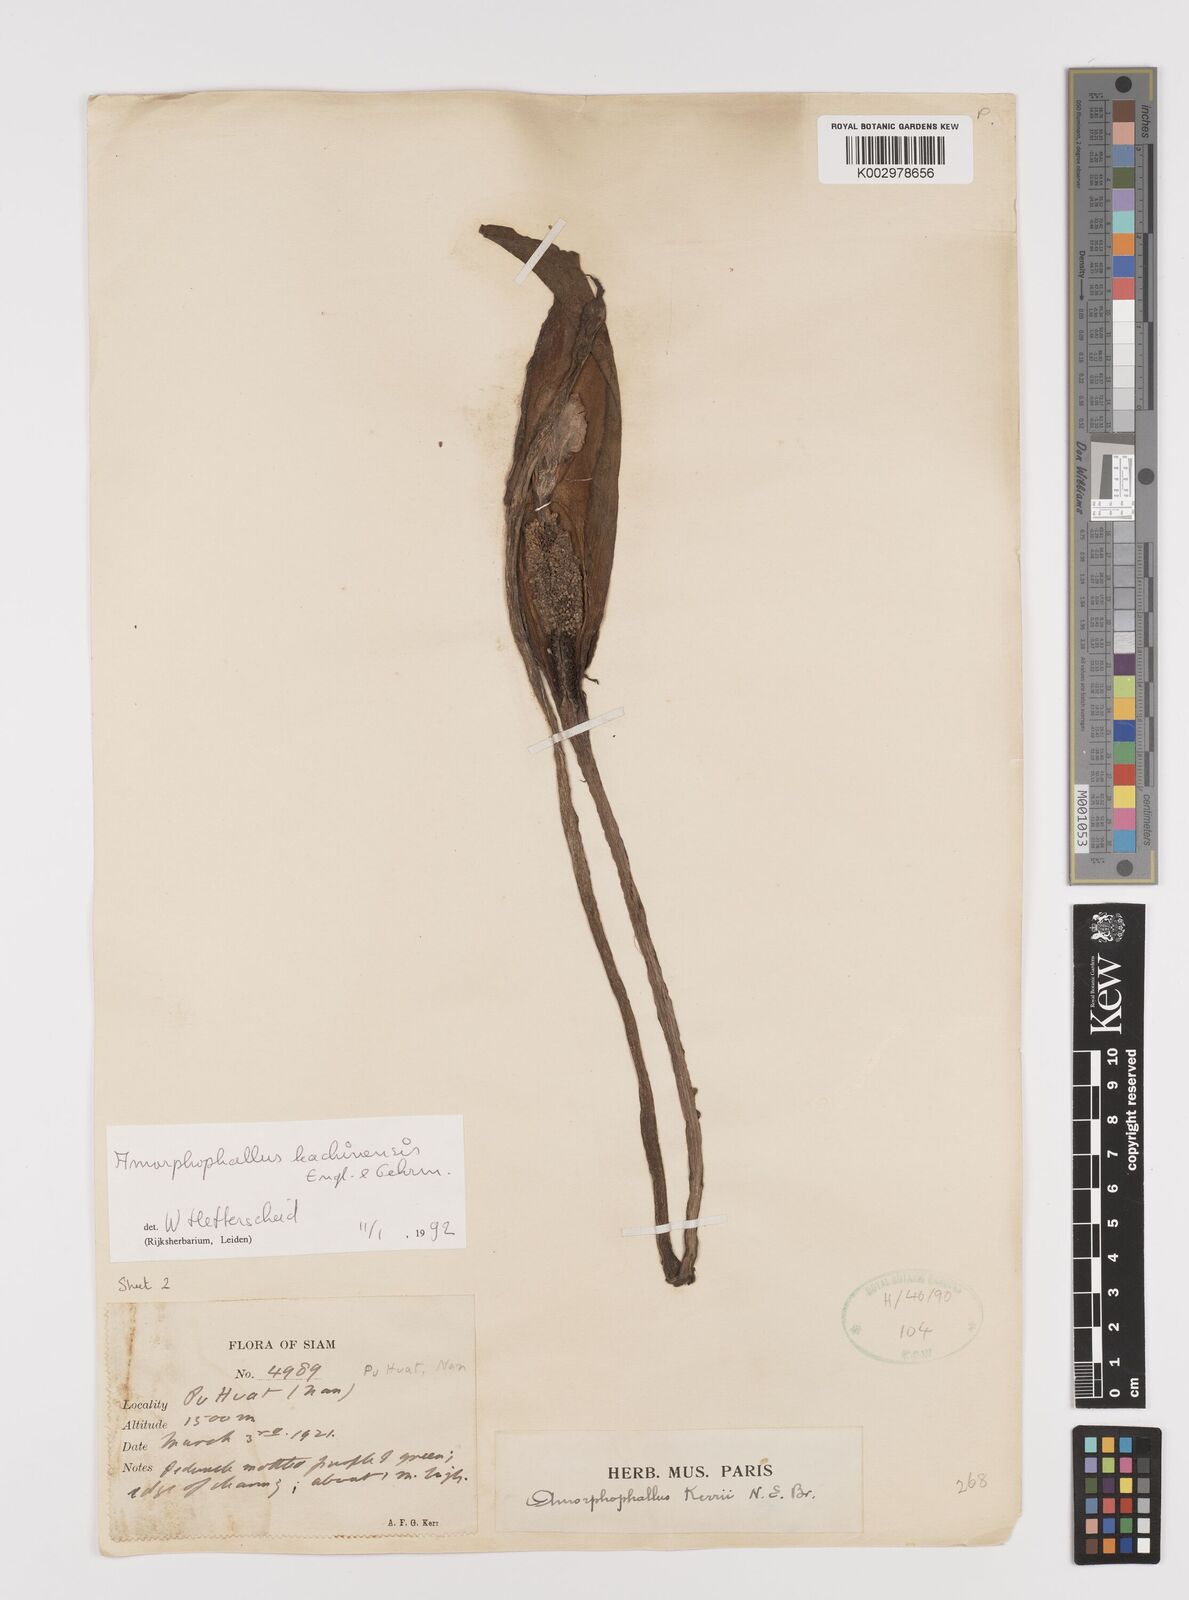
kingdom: Plantae
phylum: Tracheophyta
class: Liliopsida
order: Alismatales
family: Araceae
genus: Amorphophallus
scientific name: Amorphophallus kachinensis
